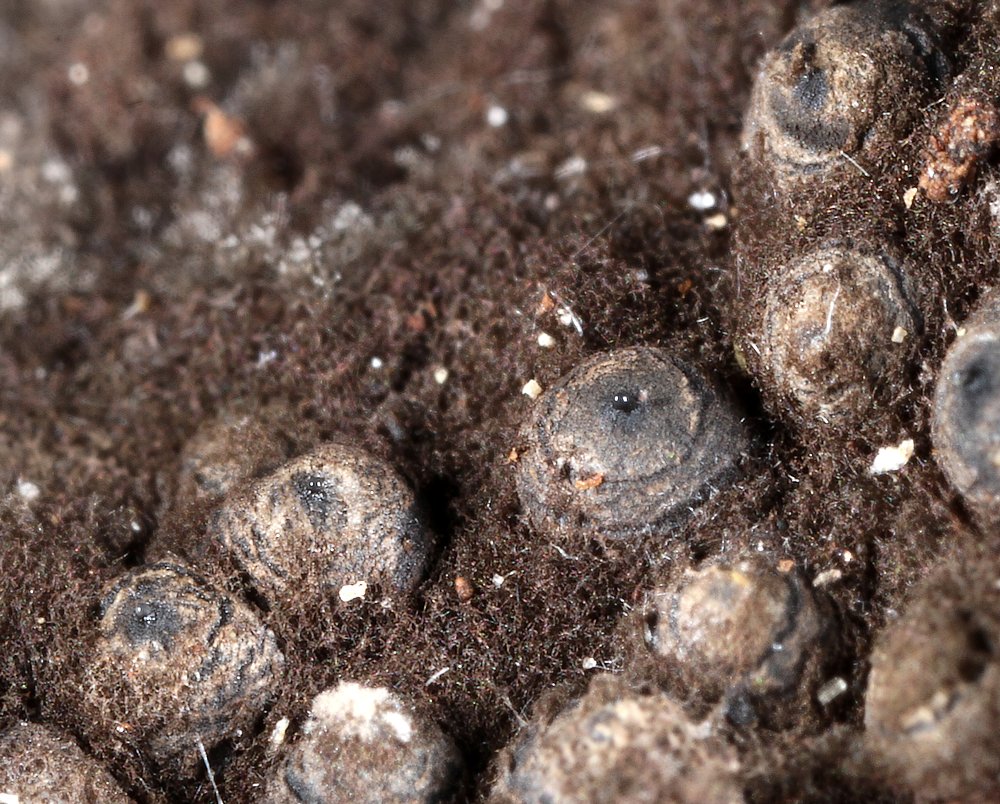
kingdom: Fungi
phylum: Ascomycota
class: Sordariomycetes
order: Xylariales
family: Xylariaceae
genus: Rosellinia
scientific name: Rosellinia corticium
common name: måtte-kulkaviar
